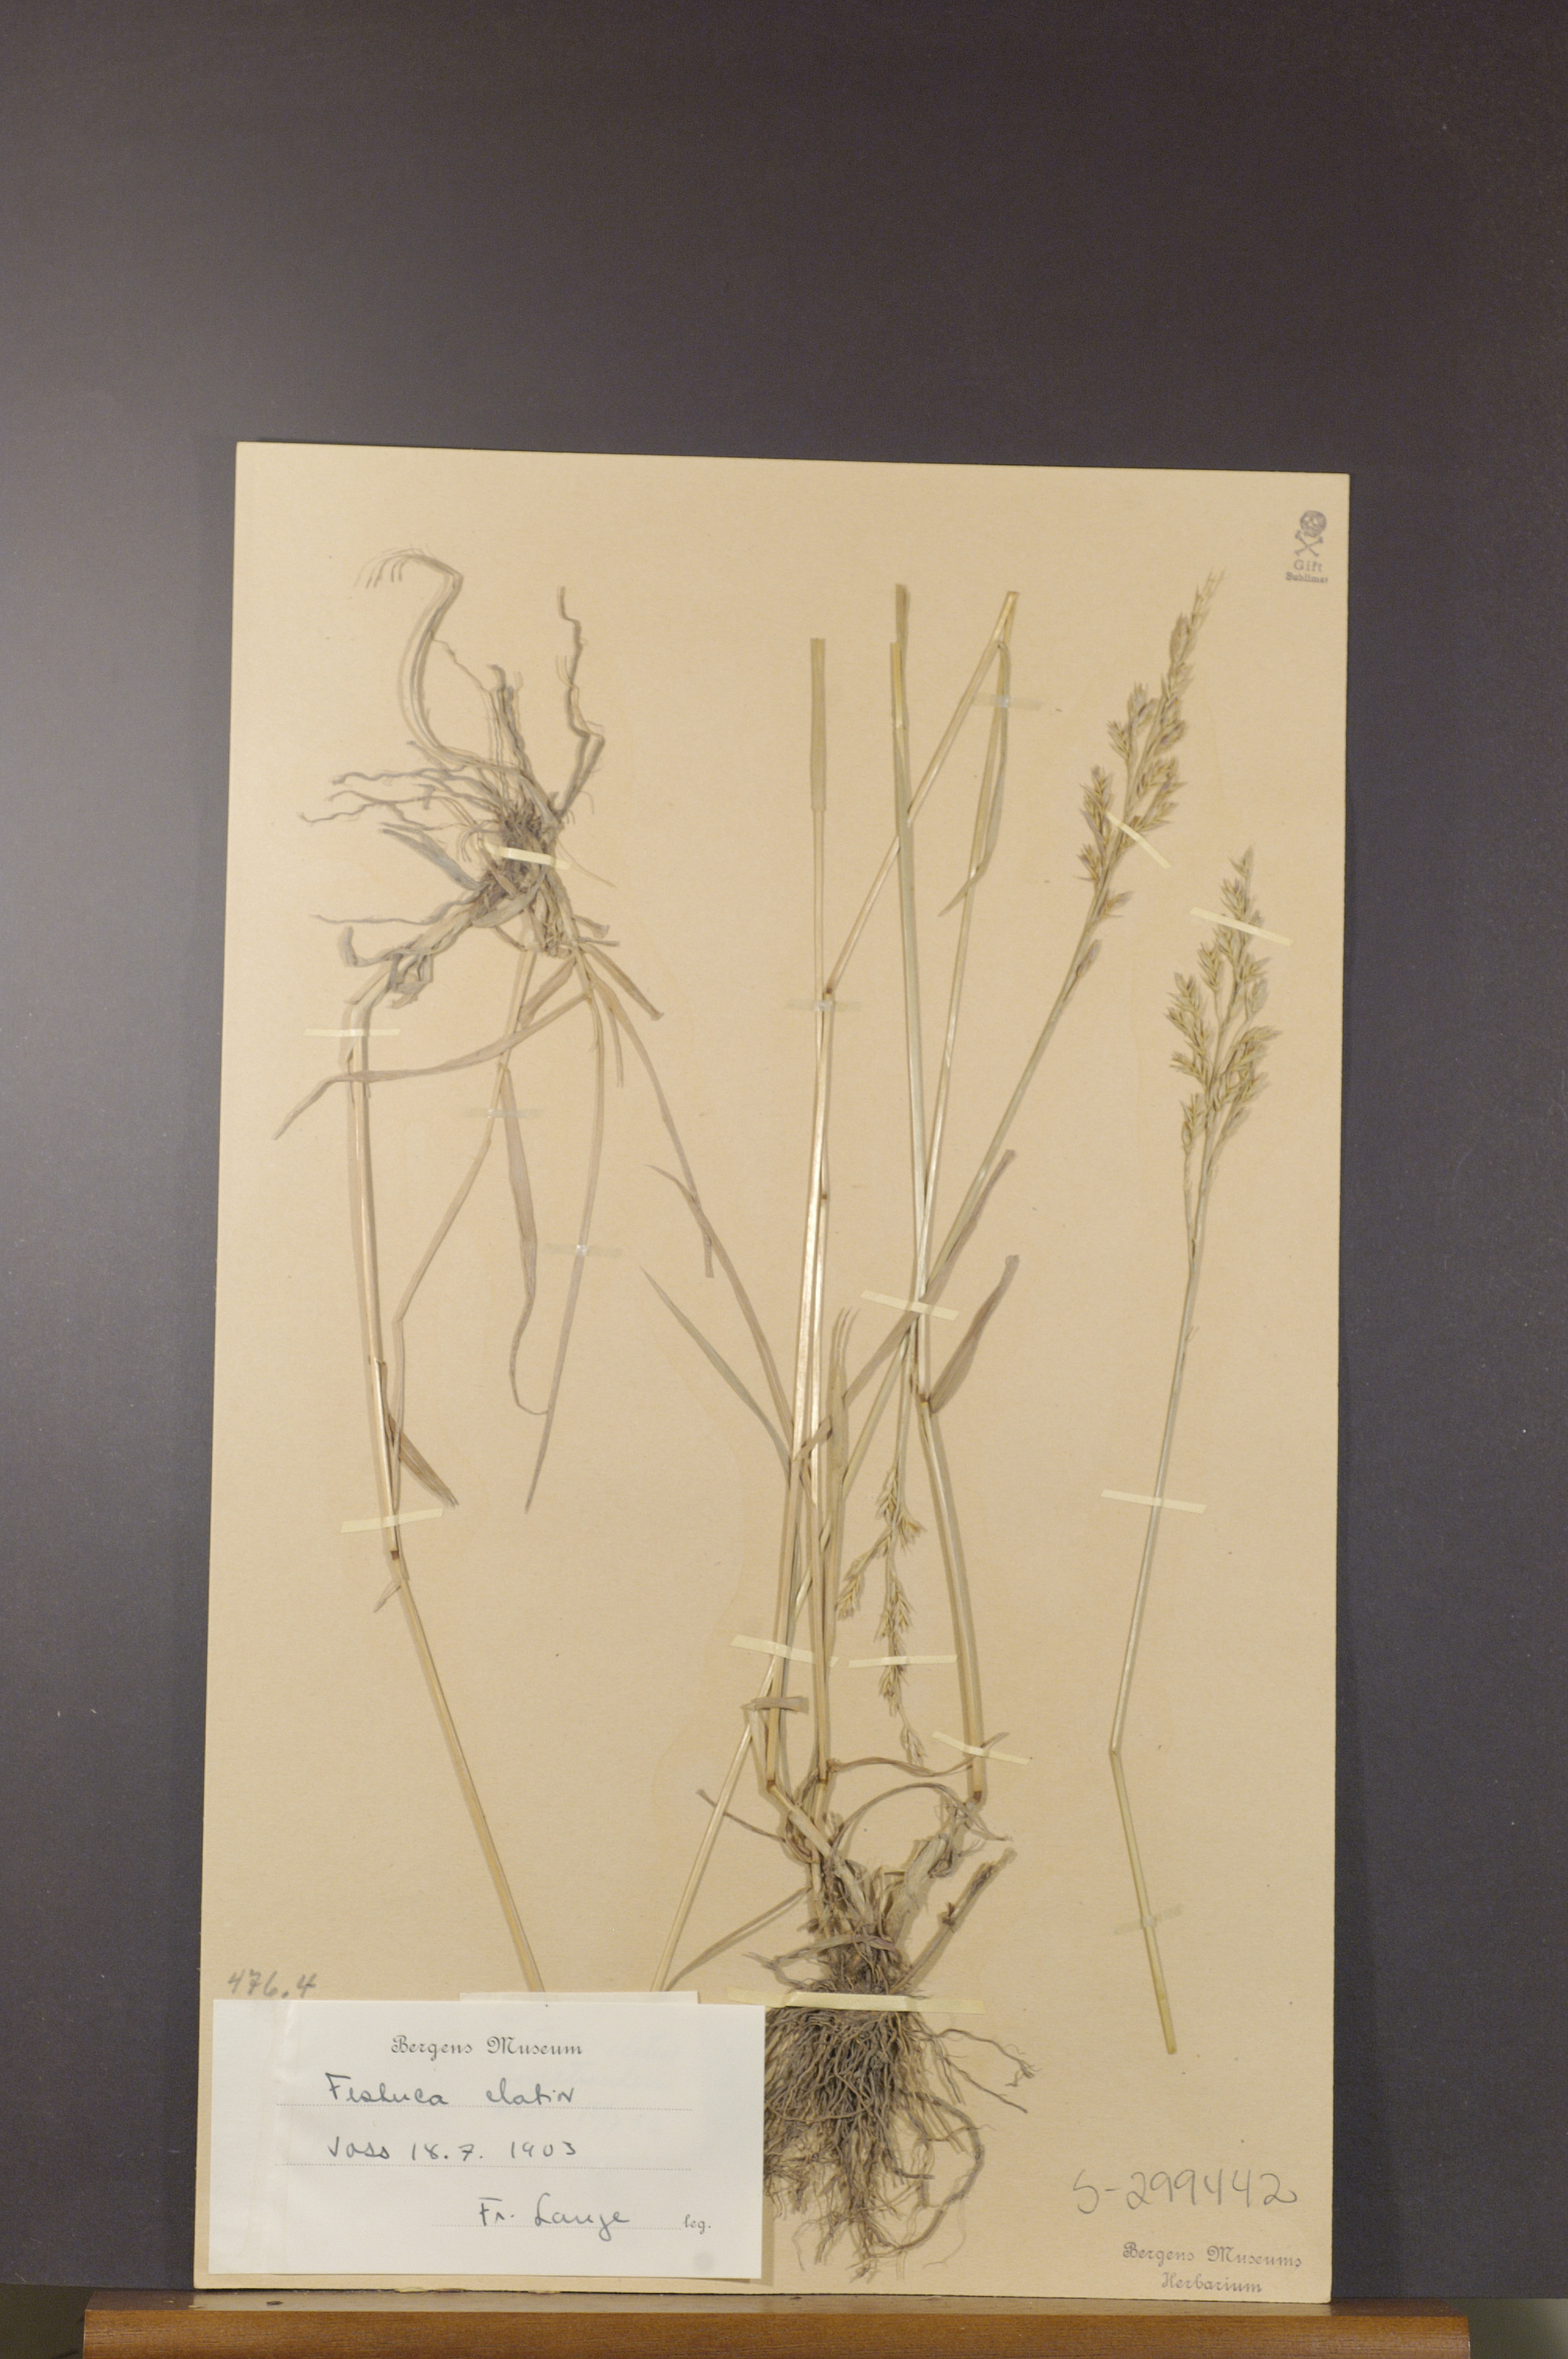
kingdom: Plantae
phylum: Tracheophyta
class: Liliopsida
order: Poales
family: Poaceae
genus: Lolium
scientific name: Lolium arundinaceum
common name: Reed fescue
